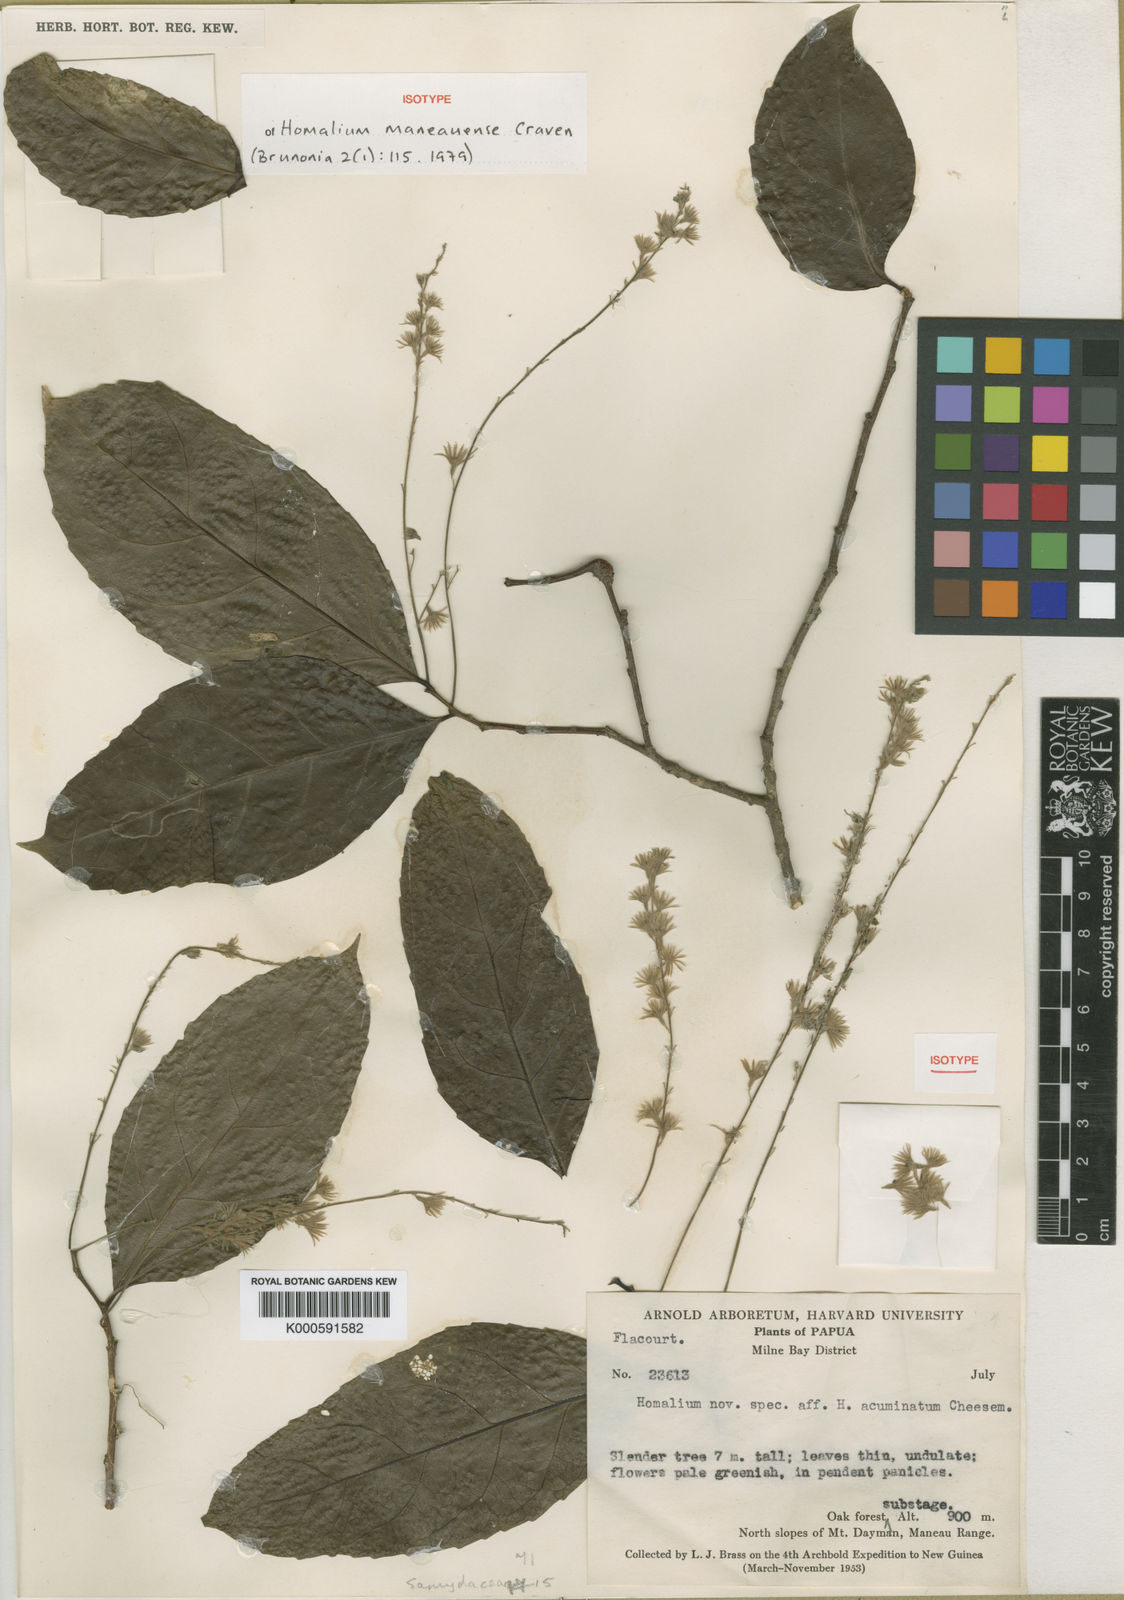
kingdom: Plantae
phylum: Tracheophyta
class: Magnoliopsida
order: Malpighiales
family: Salicaceae
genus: Homalium
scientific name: Homalium maneauense
